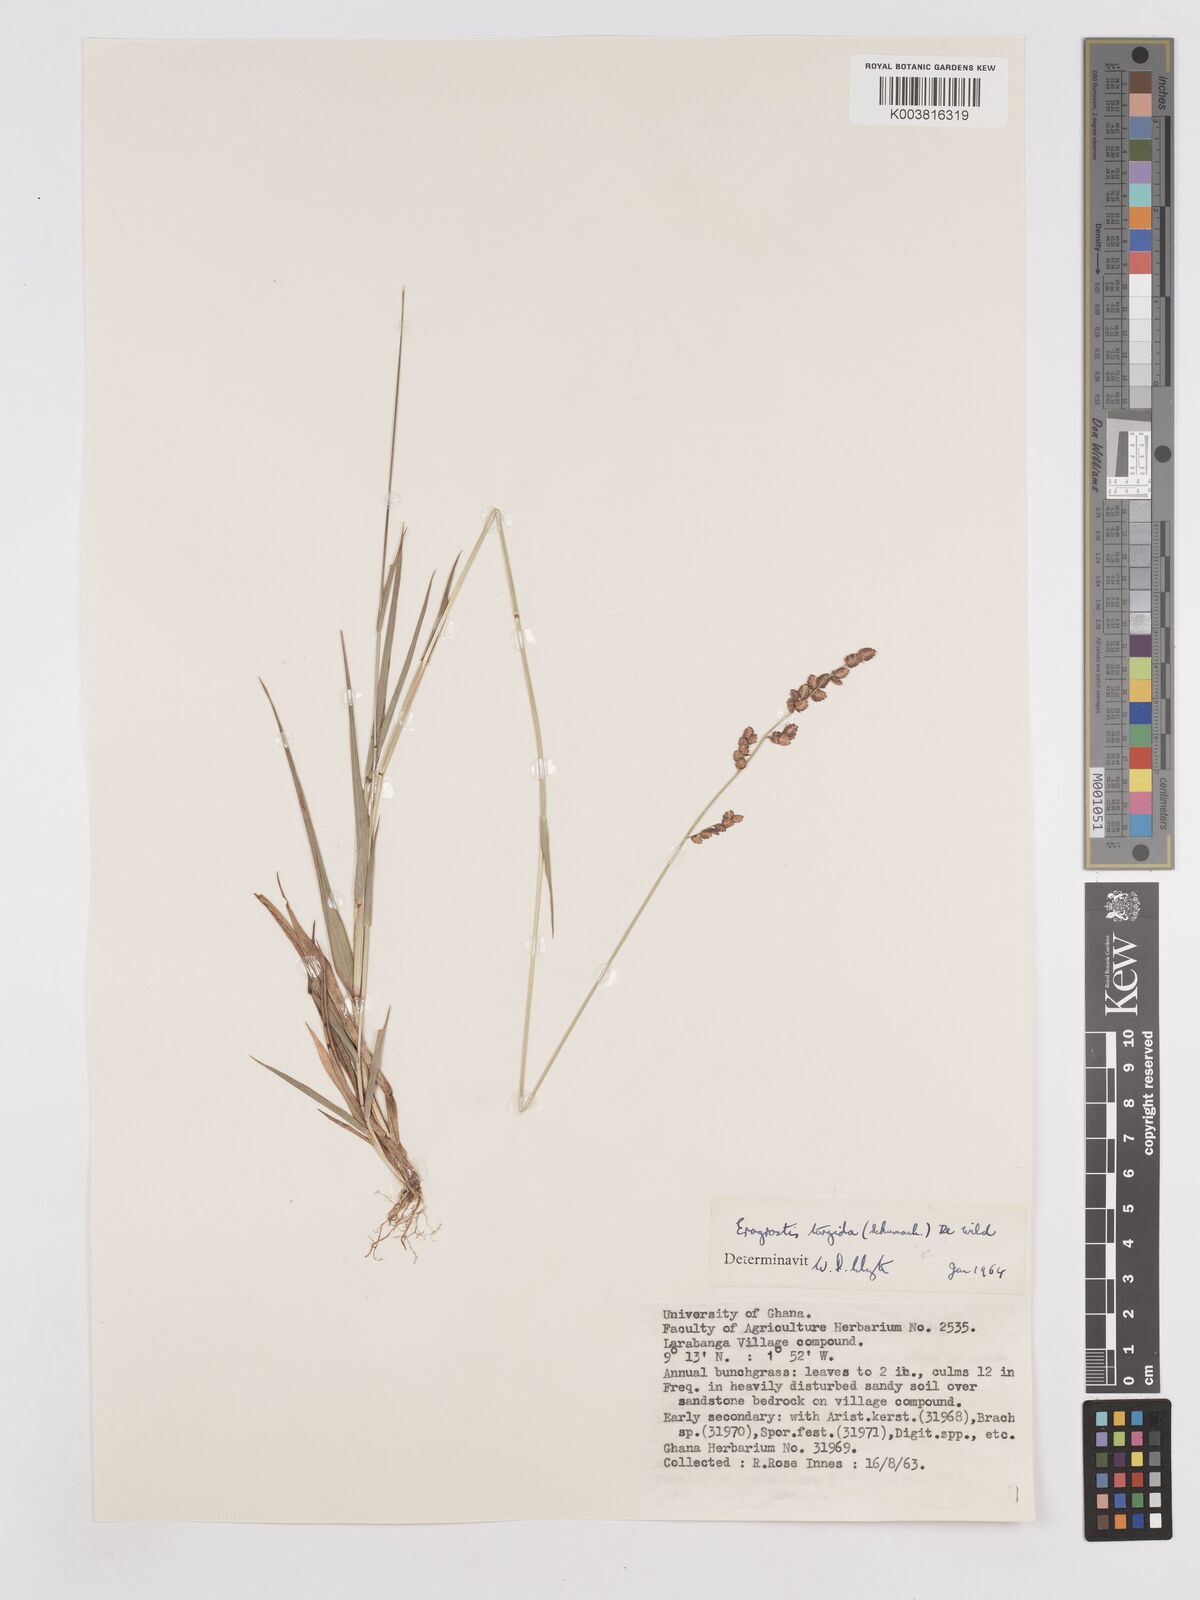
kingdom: Plantae
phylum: Tracheophyta
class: Liliopsida
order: Poales
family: Poaceae
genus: Eragrostis
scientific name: Eragrostis turgida
